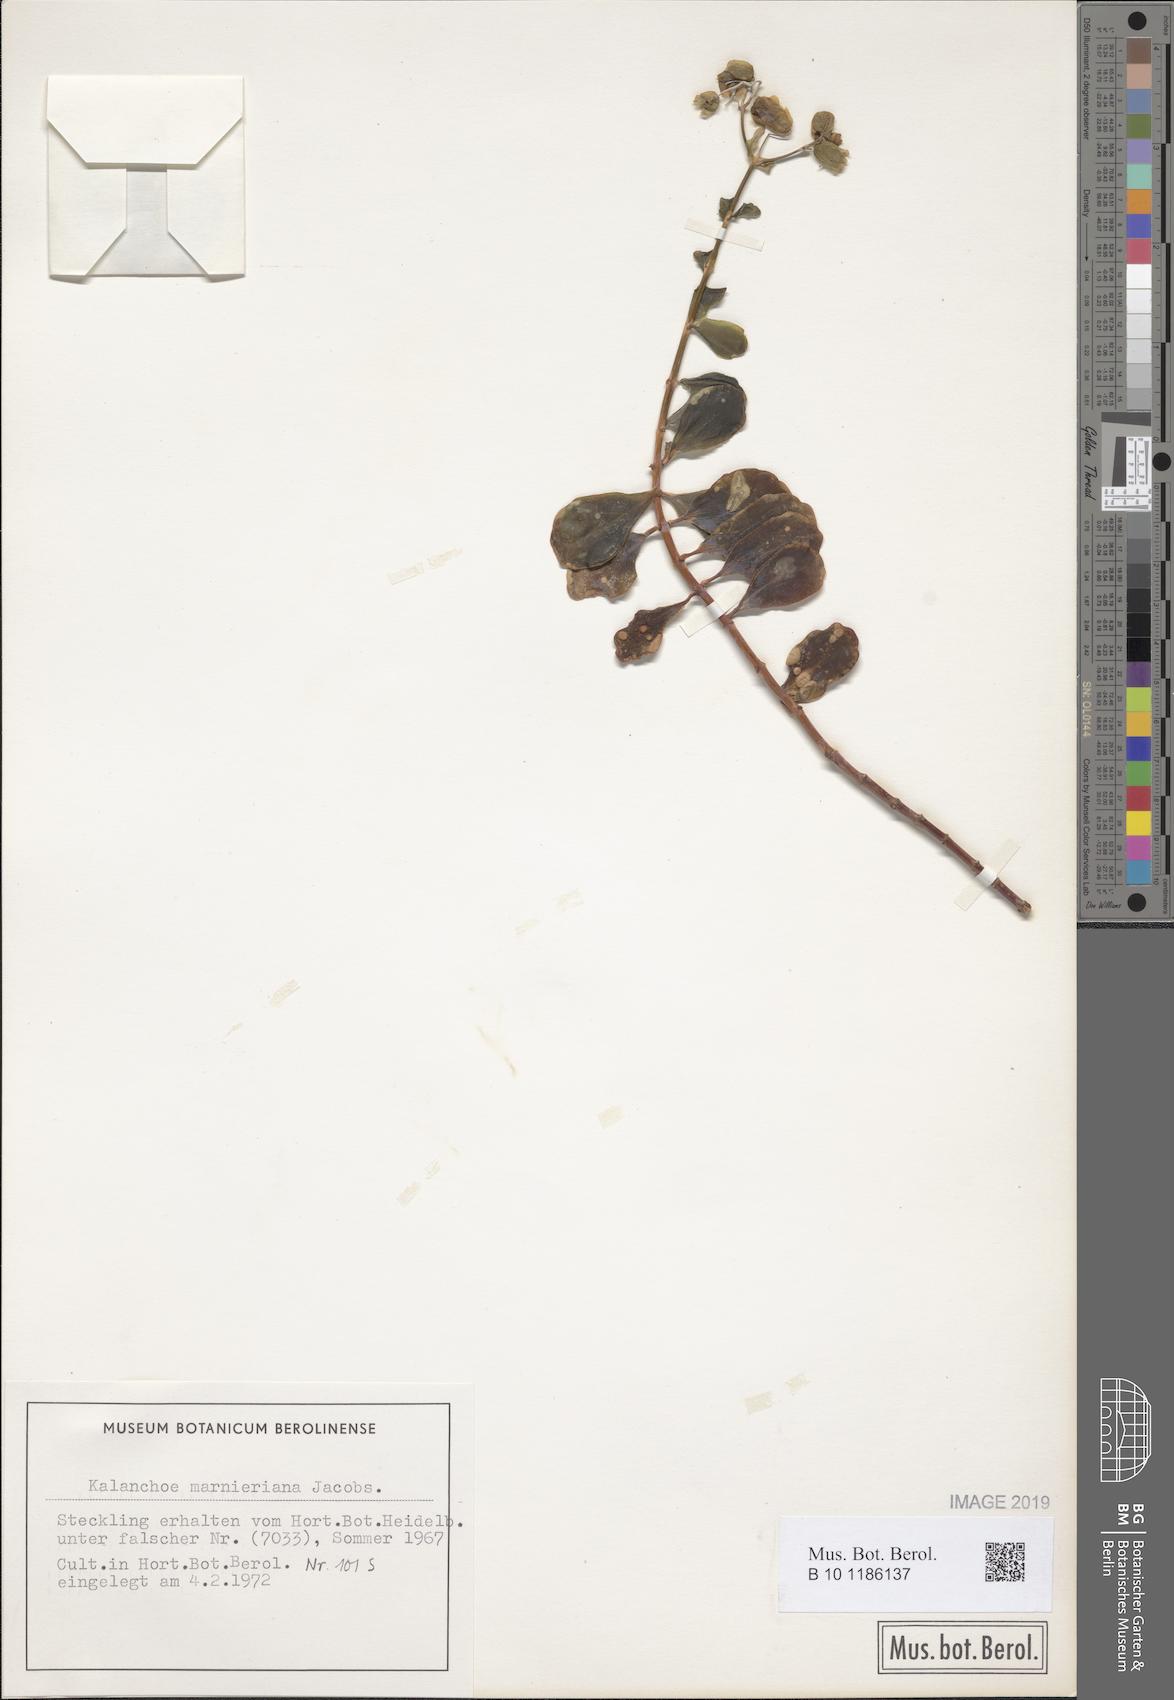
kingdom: Plantae
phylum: Tracheophyta
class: Magnoliopsida
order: Saxifragales
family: Crassulaceae
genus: Kalanchoe
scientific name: Kalanchoe marnieriana
